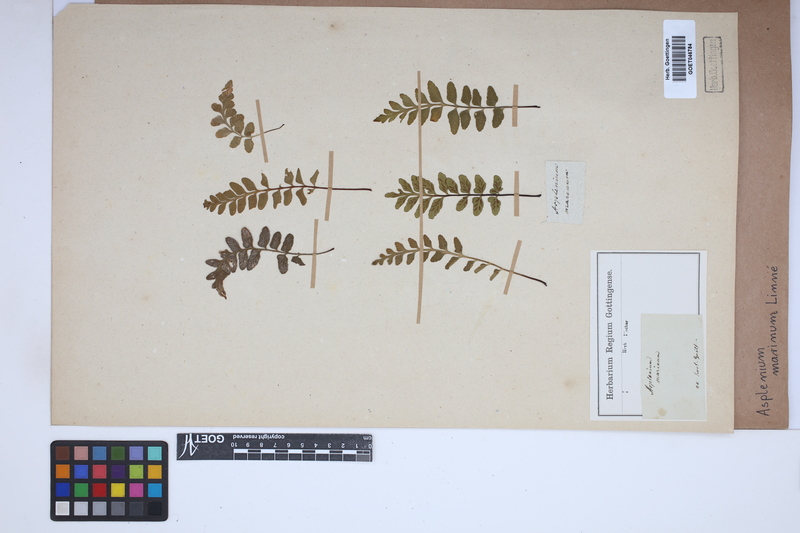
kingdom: Plantae
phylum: Tracheophyta
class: Polypodiopsida
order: Polypodiales
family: Aspleniaceae
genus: Asplenium
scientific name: Asplenium marinum
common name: Sea spleenwort
